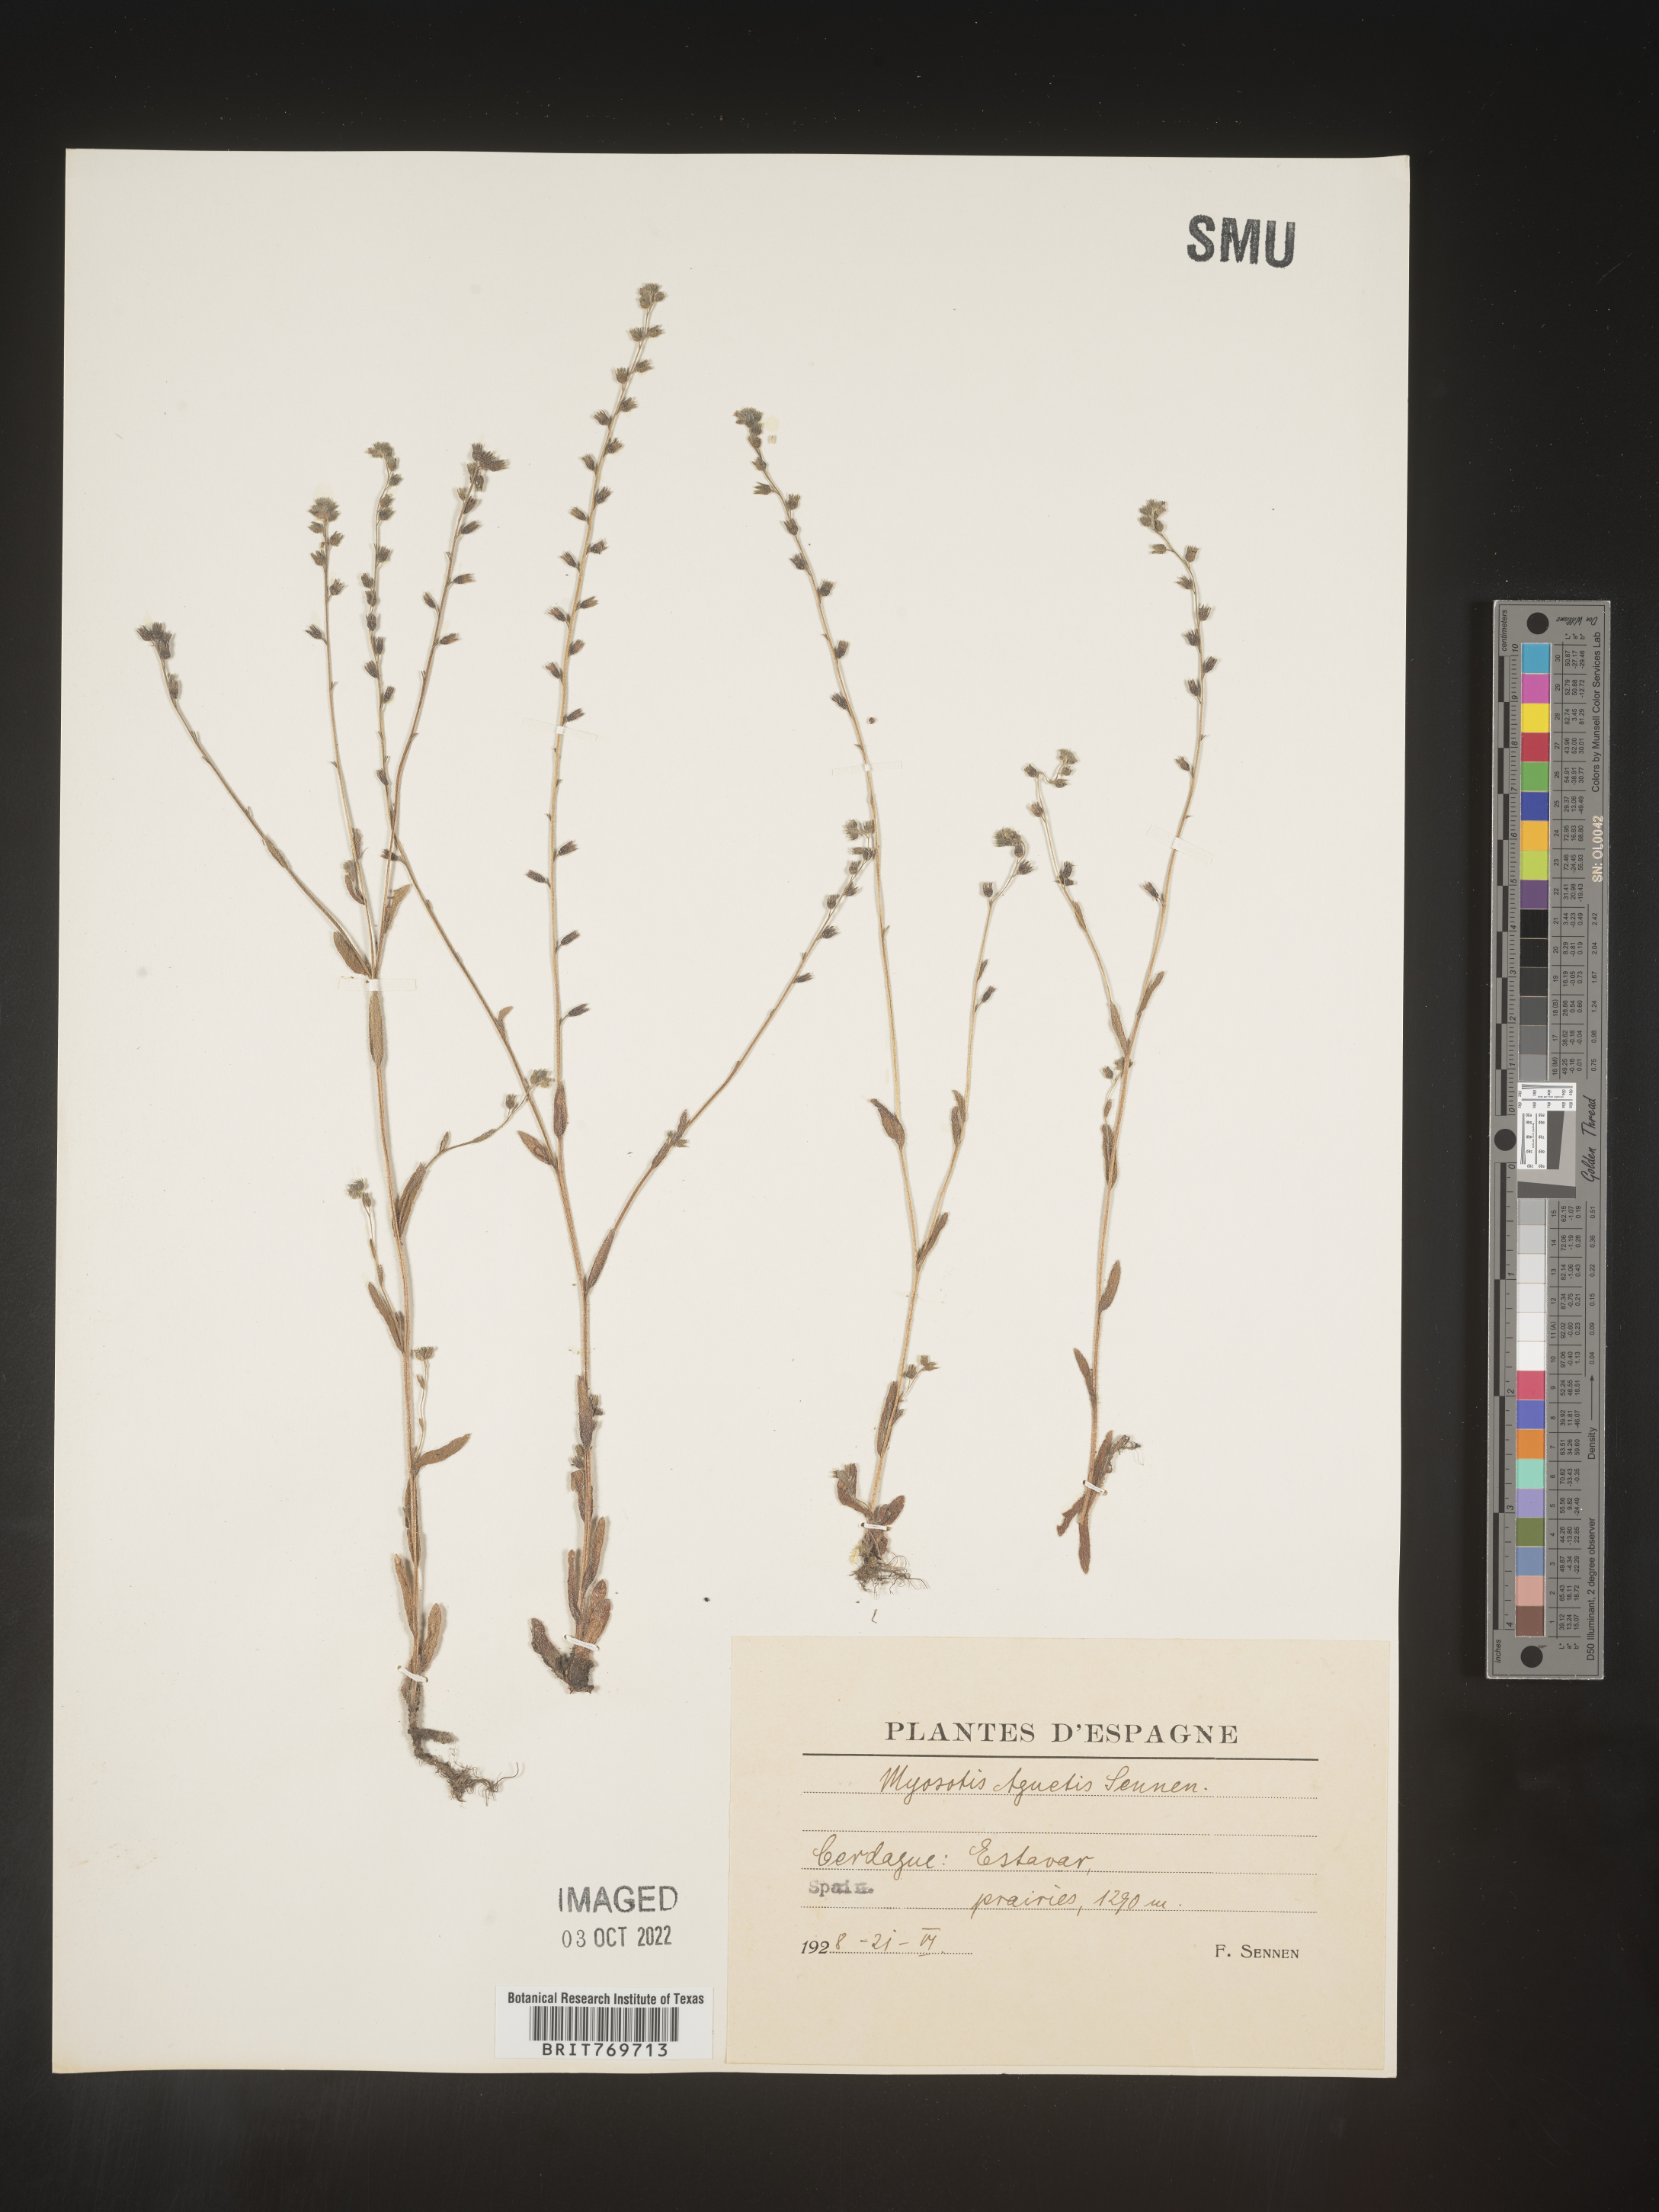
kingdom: Plantae
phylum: Tracheophyta
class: Magnoliopsida
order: Boraginales
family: Boraginaceae
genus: Myosotis
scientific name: Myosotis
